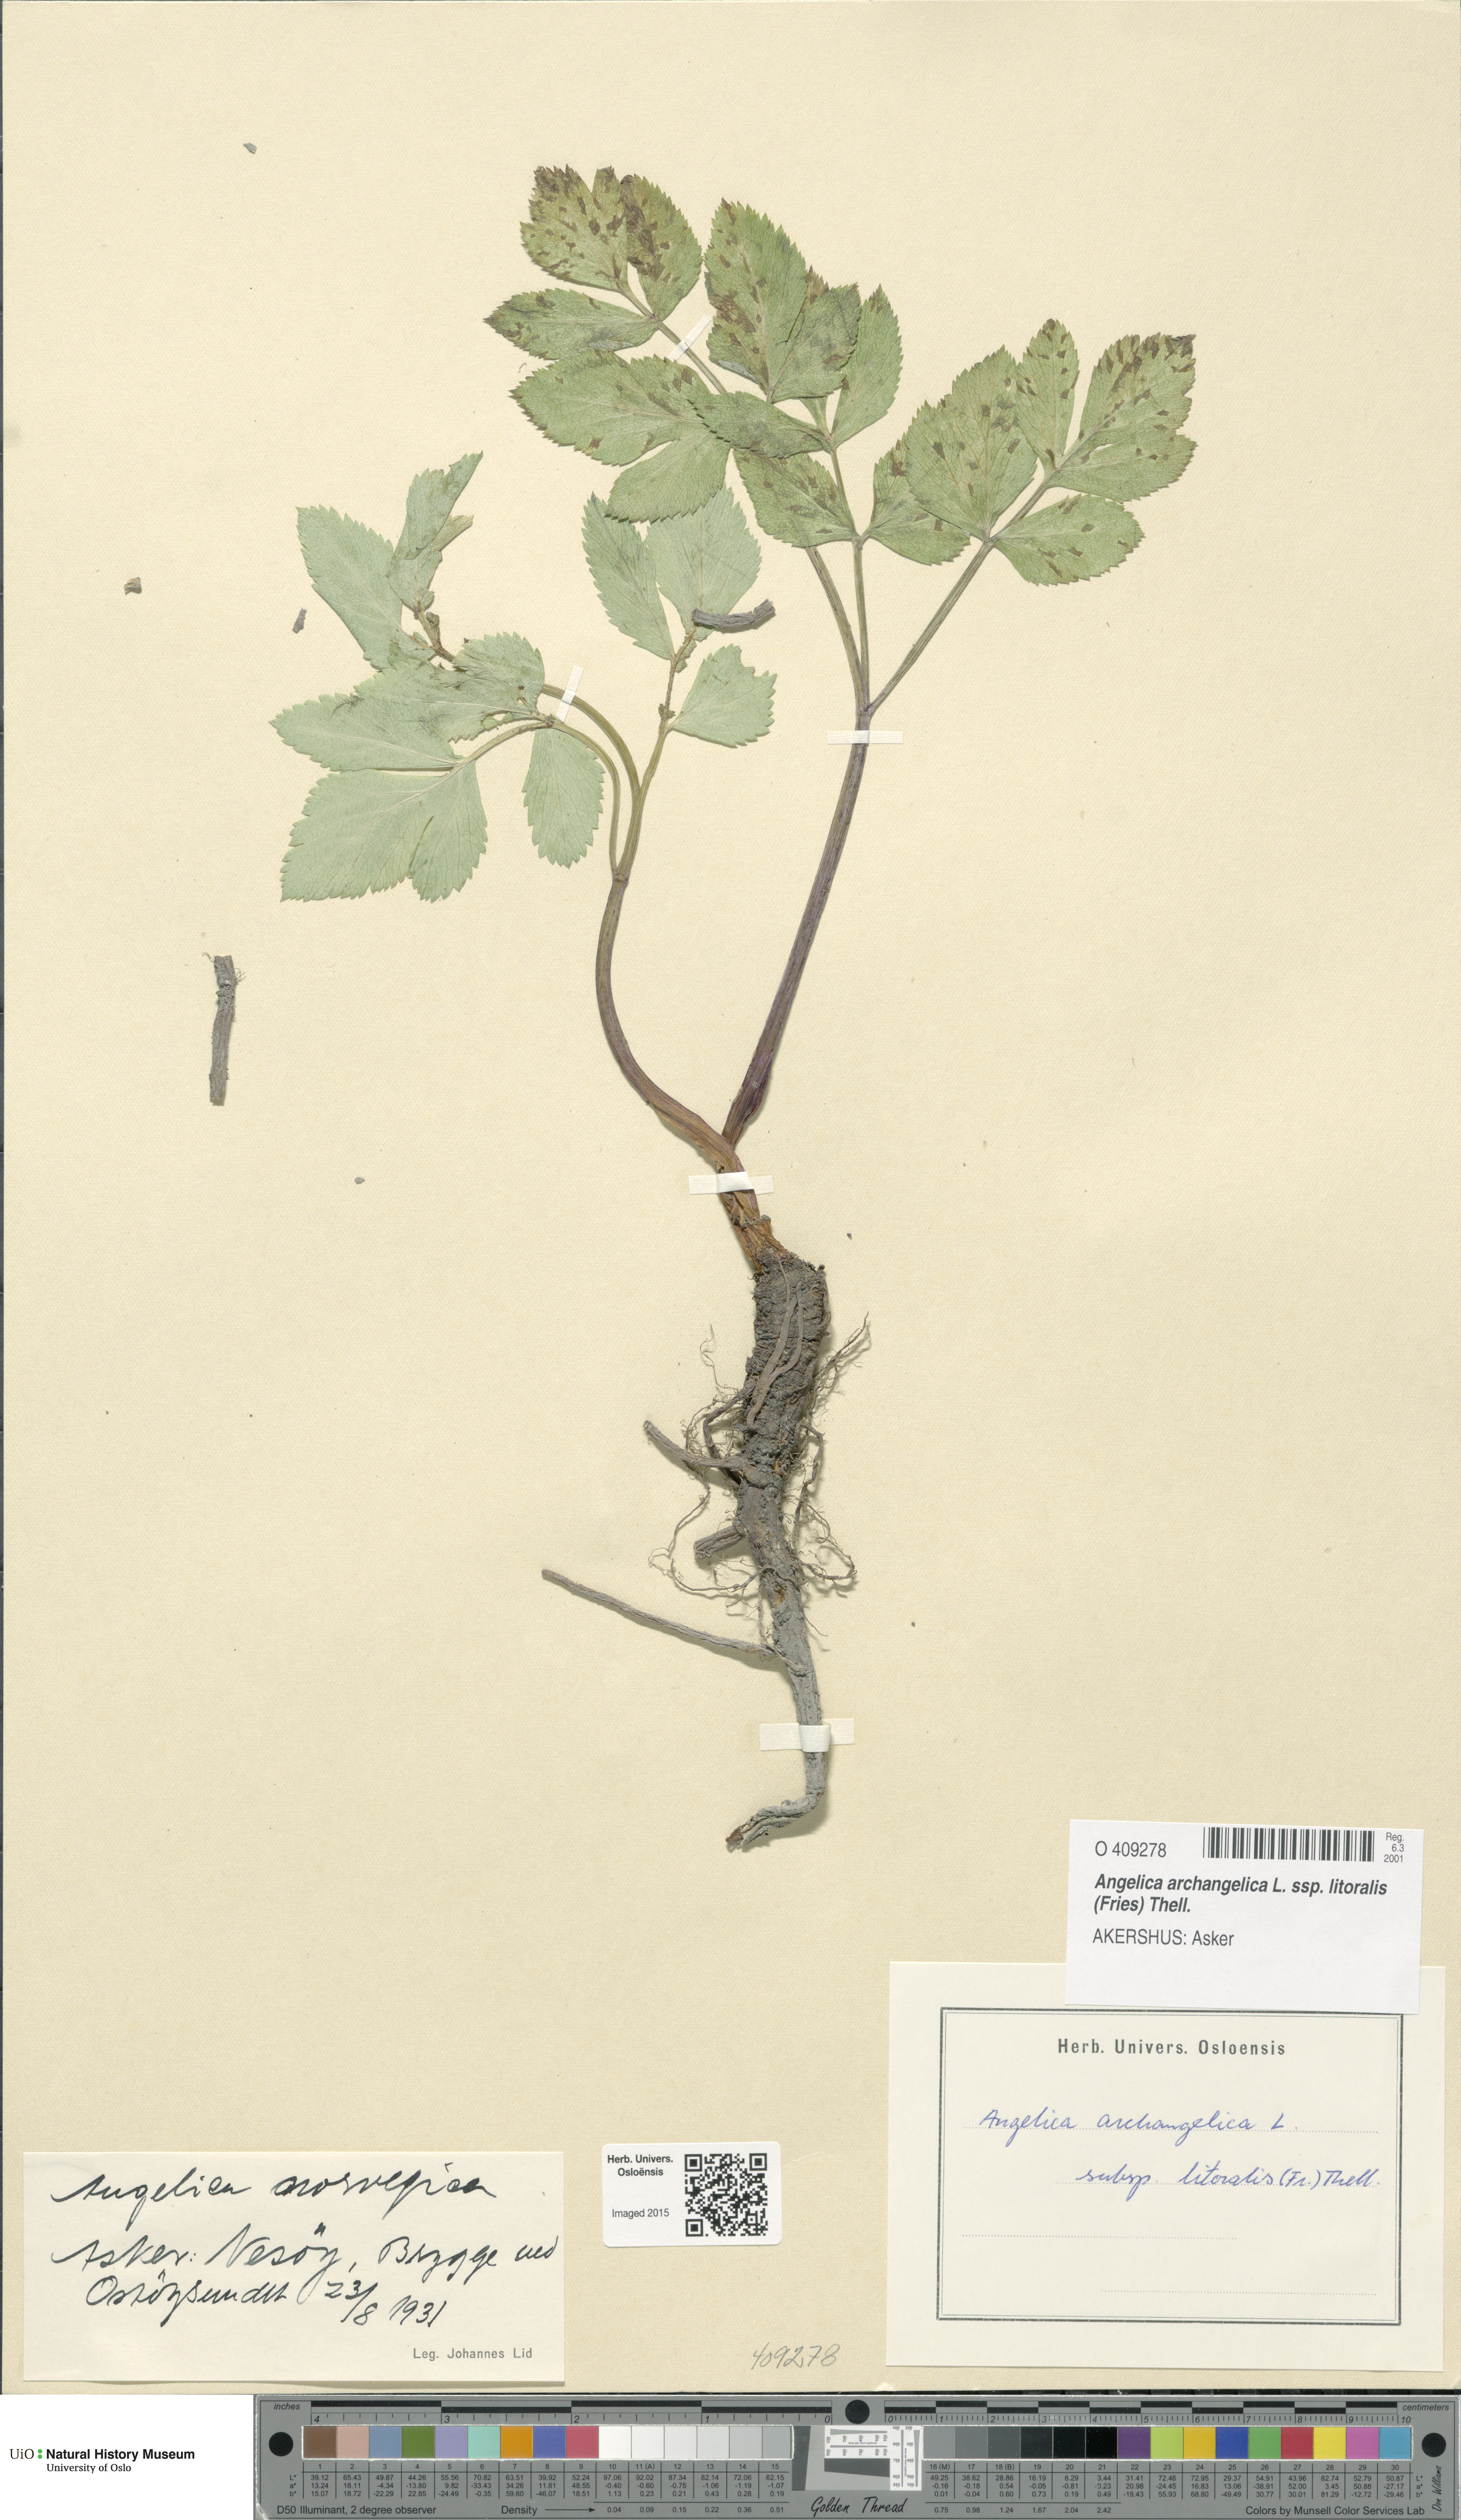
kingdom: Plantae
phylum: Tracheophyta
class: Magnoliopsida
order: Apiales
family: Apiaceae
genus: Angelica
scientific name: Angelica archangelica
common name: Garden angelica
